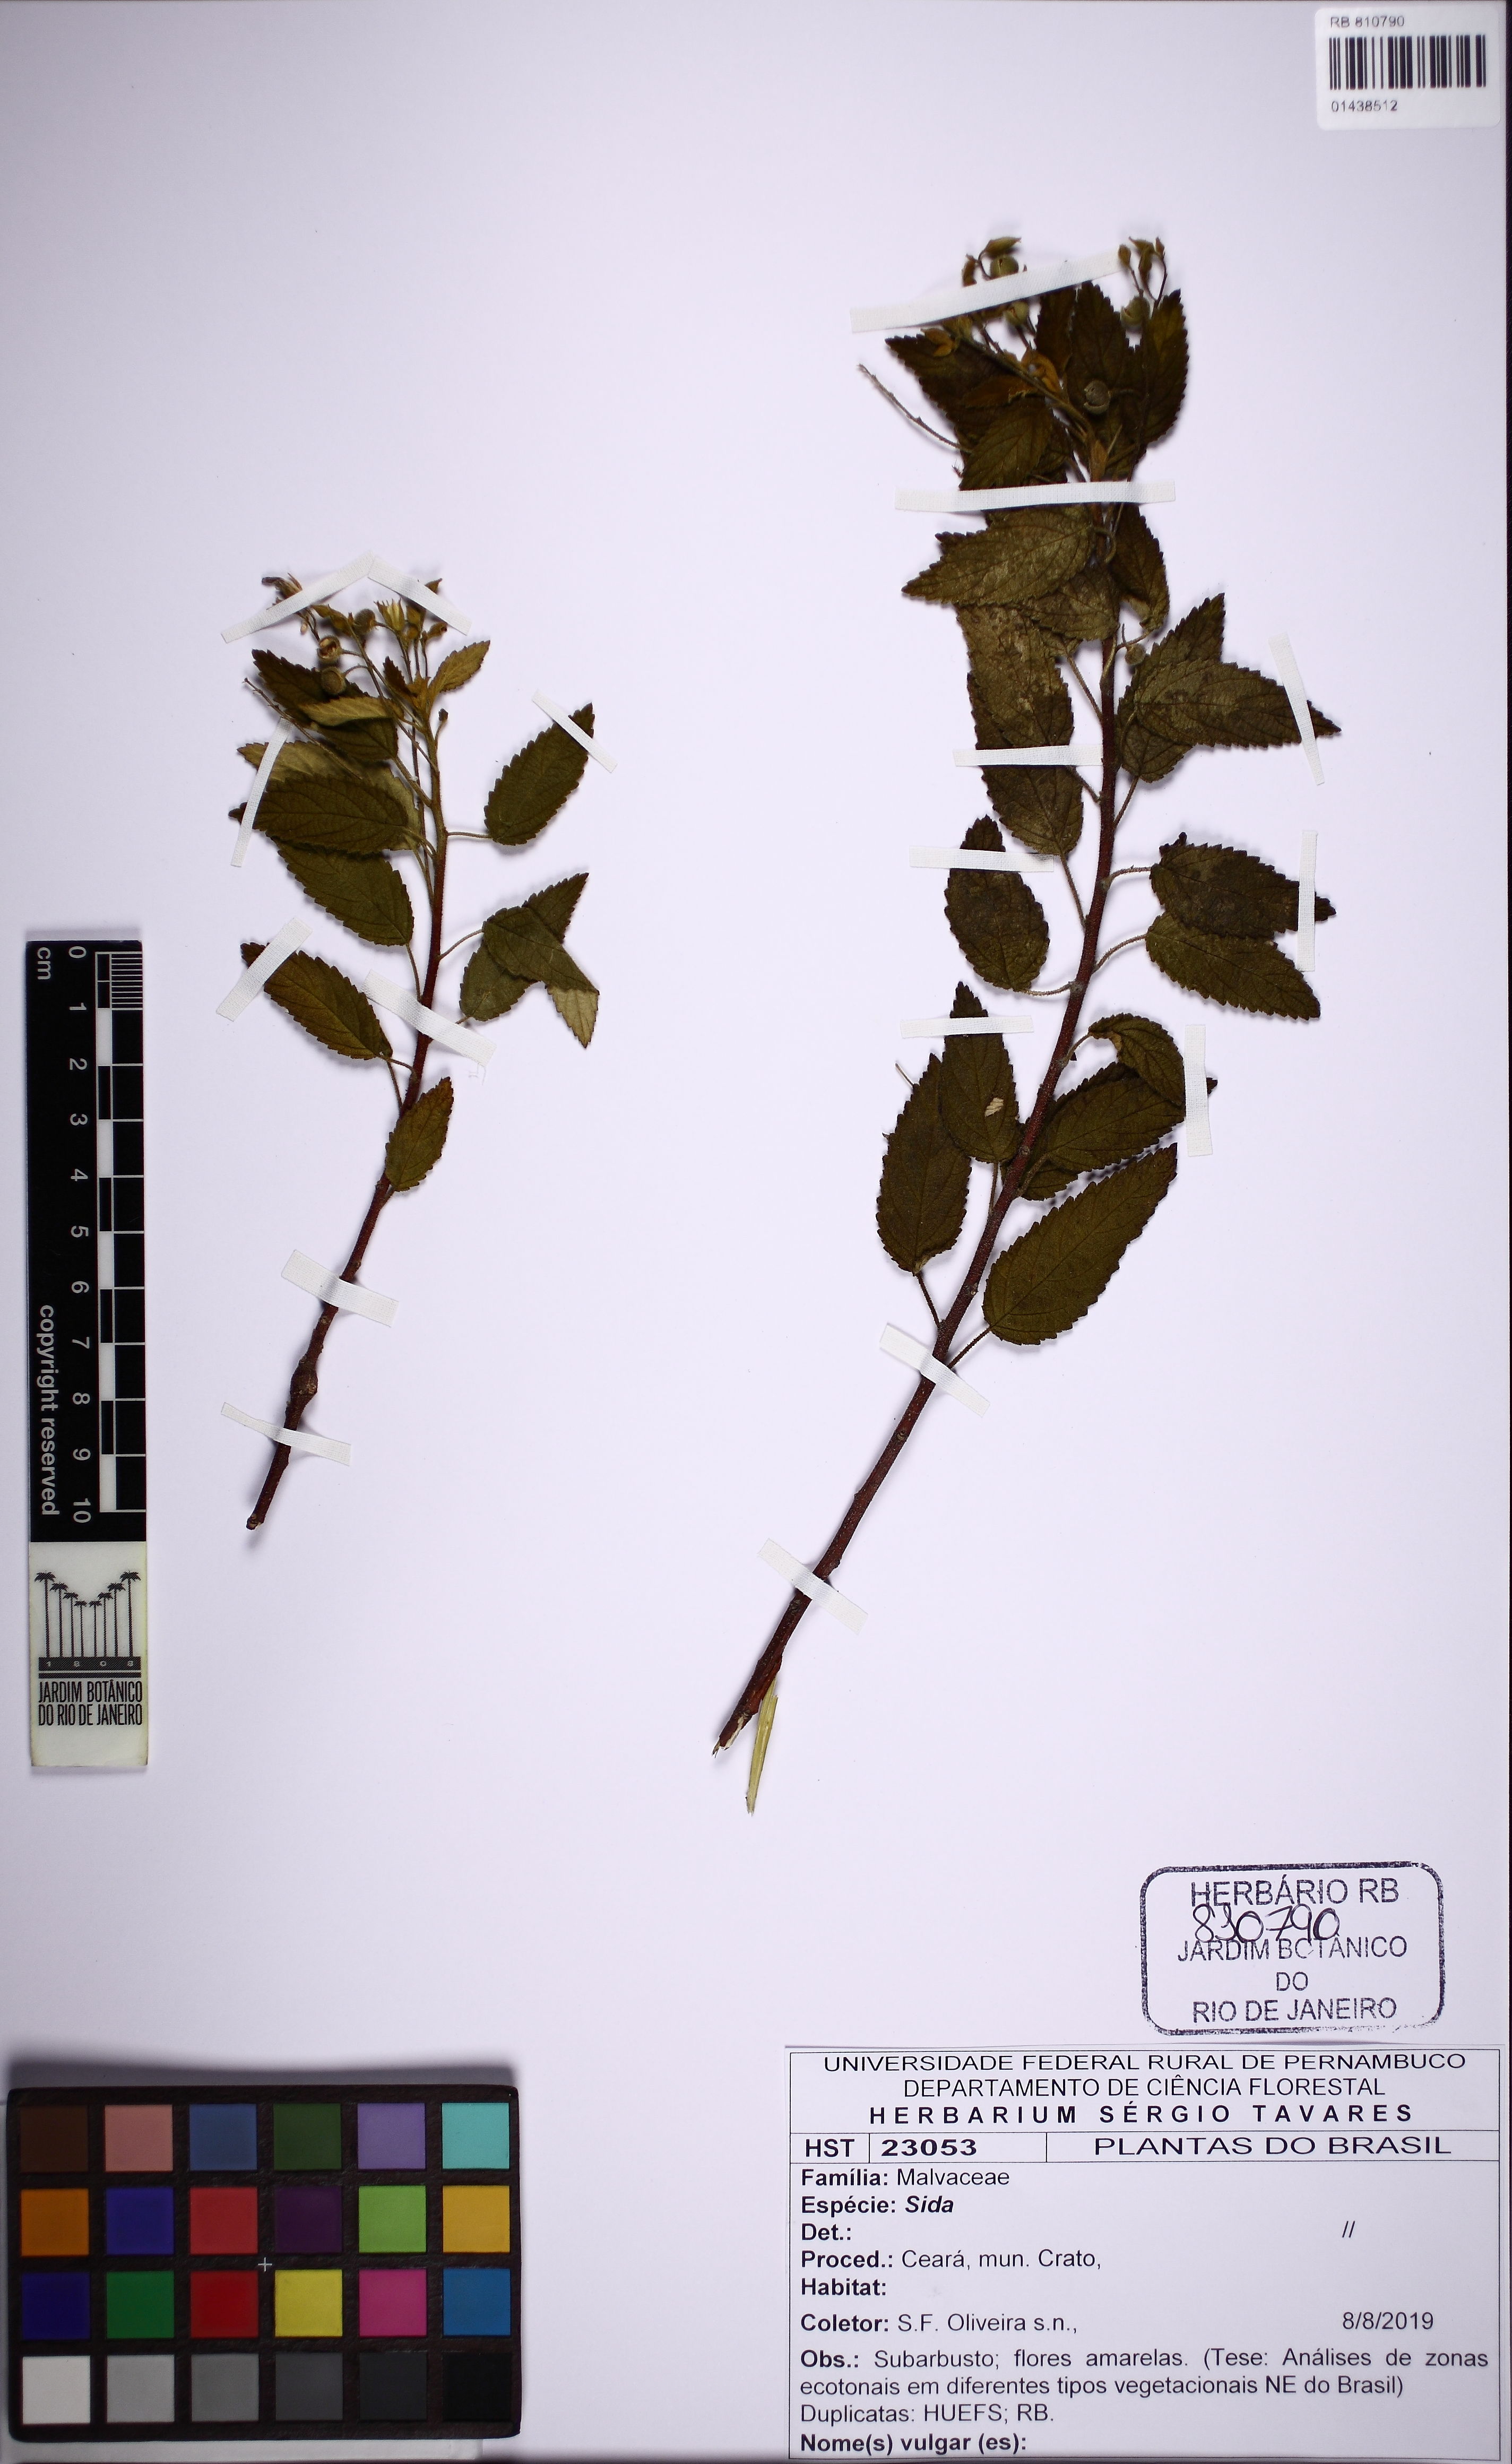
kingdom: Plantae
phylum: Tracheophyta
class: Magnoliopsida
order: Malvales
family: Malvaceae
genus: Sida
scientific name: Sida
